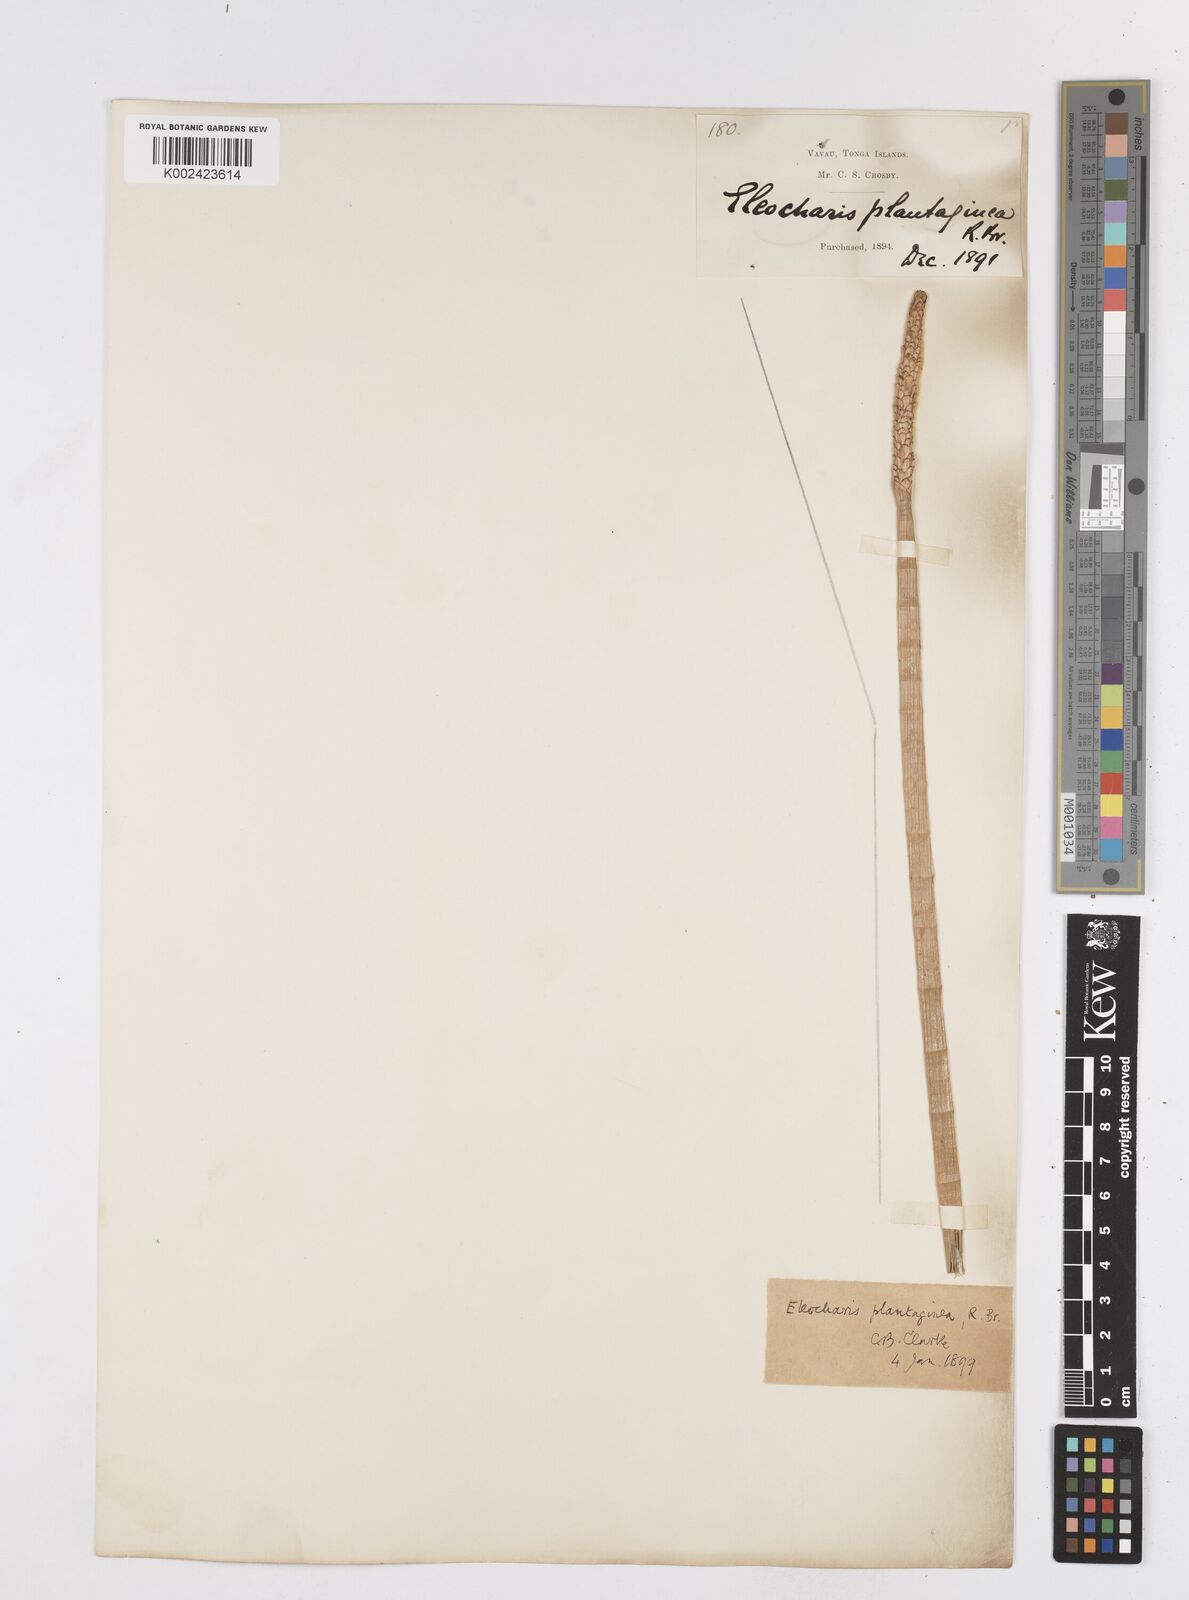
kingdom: Plantae
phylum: Tracheophyta
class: Liliopsida
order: Poales
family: Cyperaceae
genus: Eleocharis
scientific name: Eleocharis dulcis
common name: Chinese water chestnut
